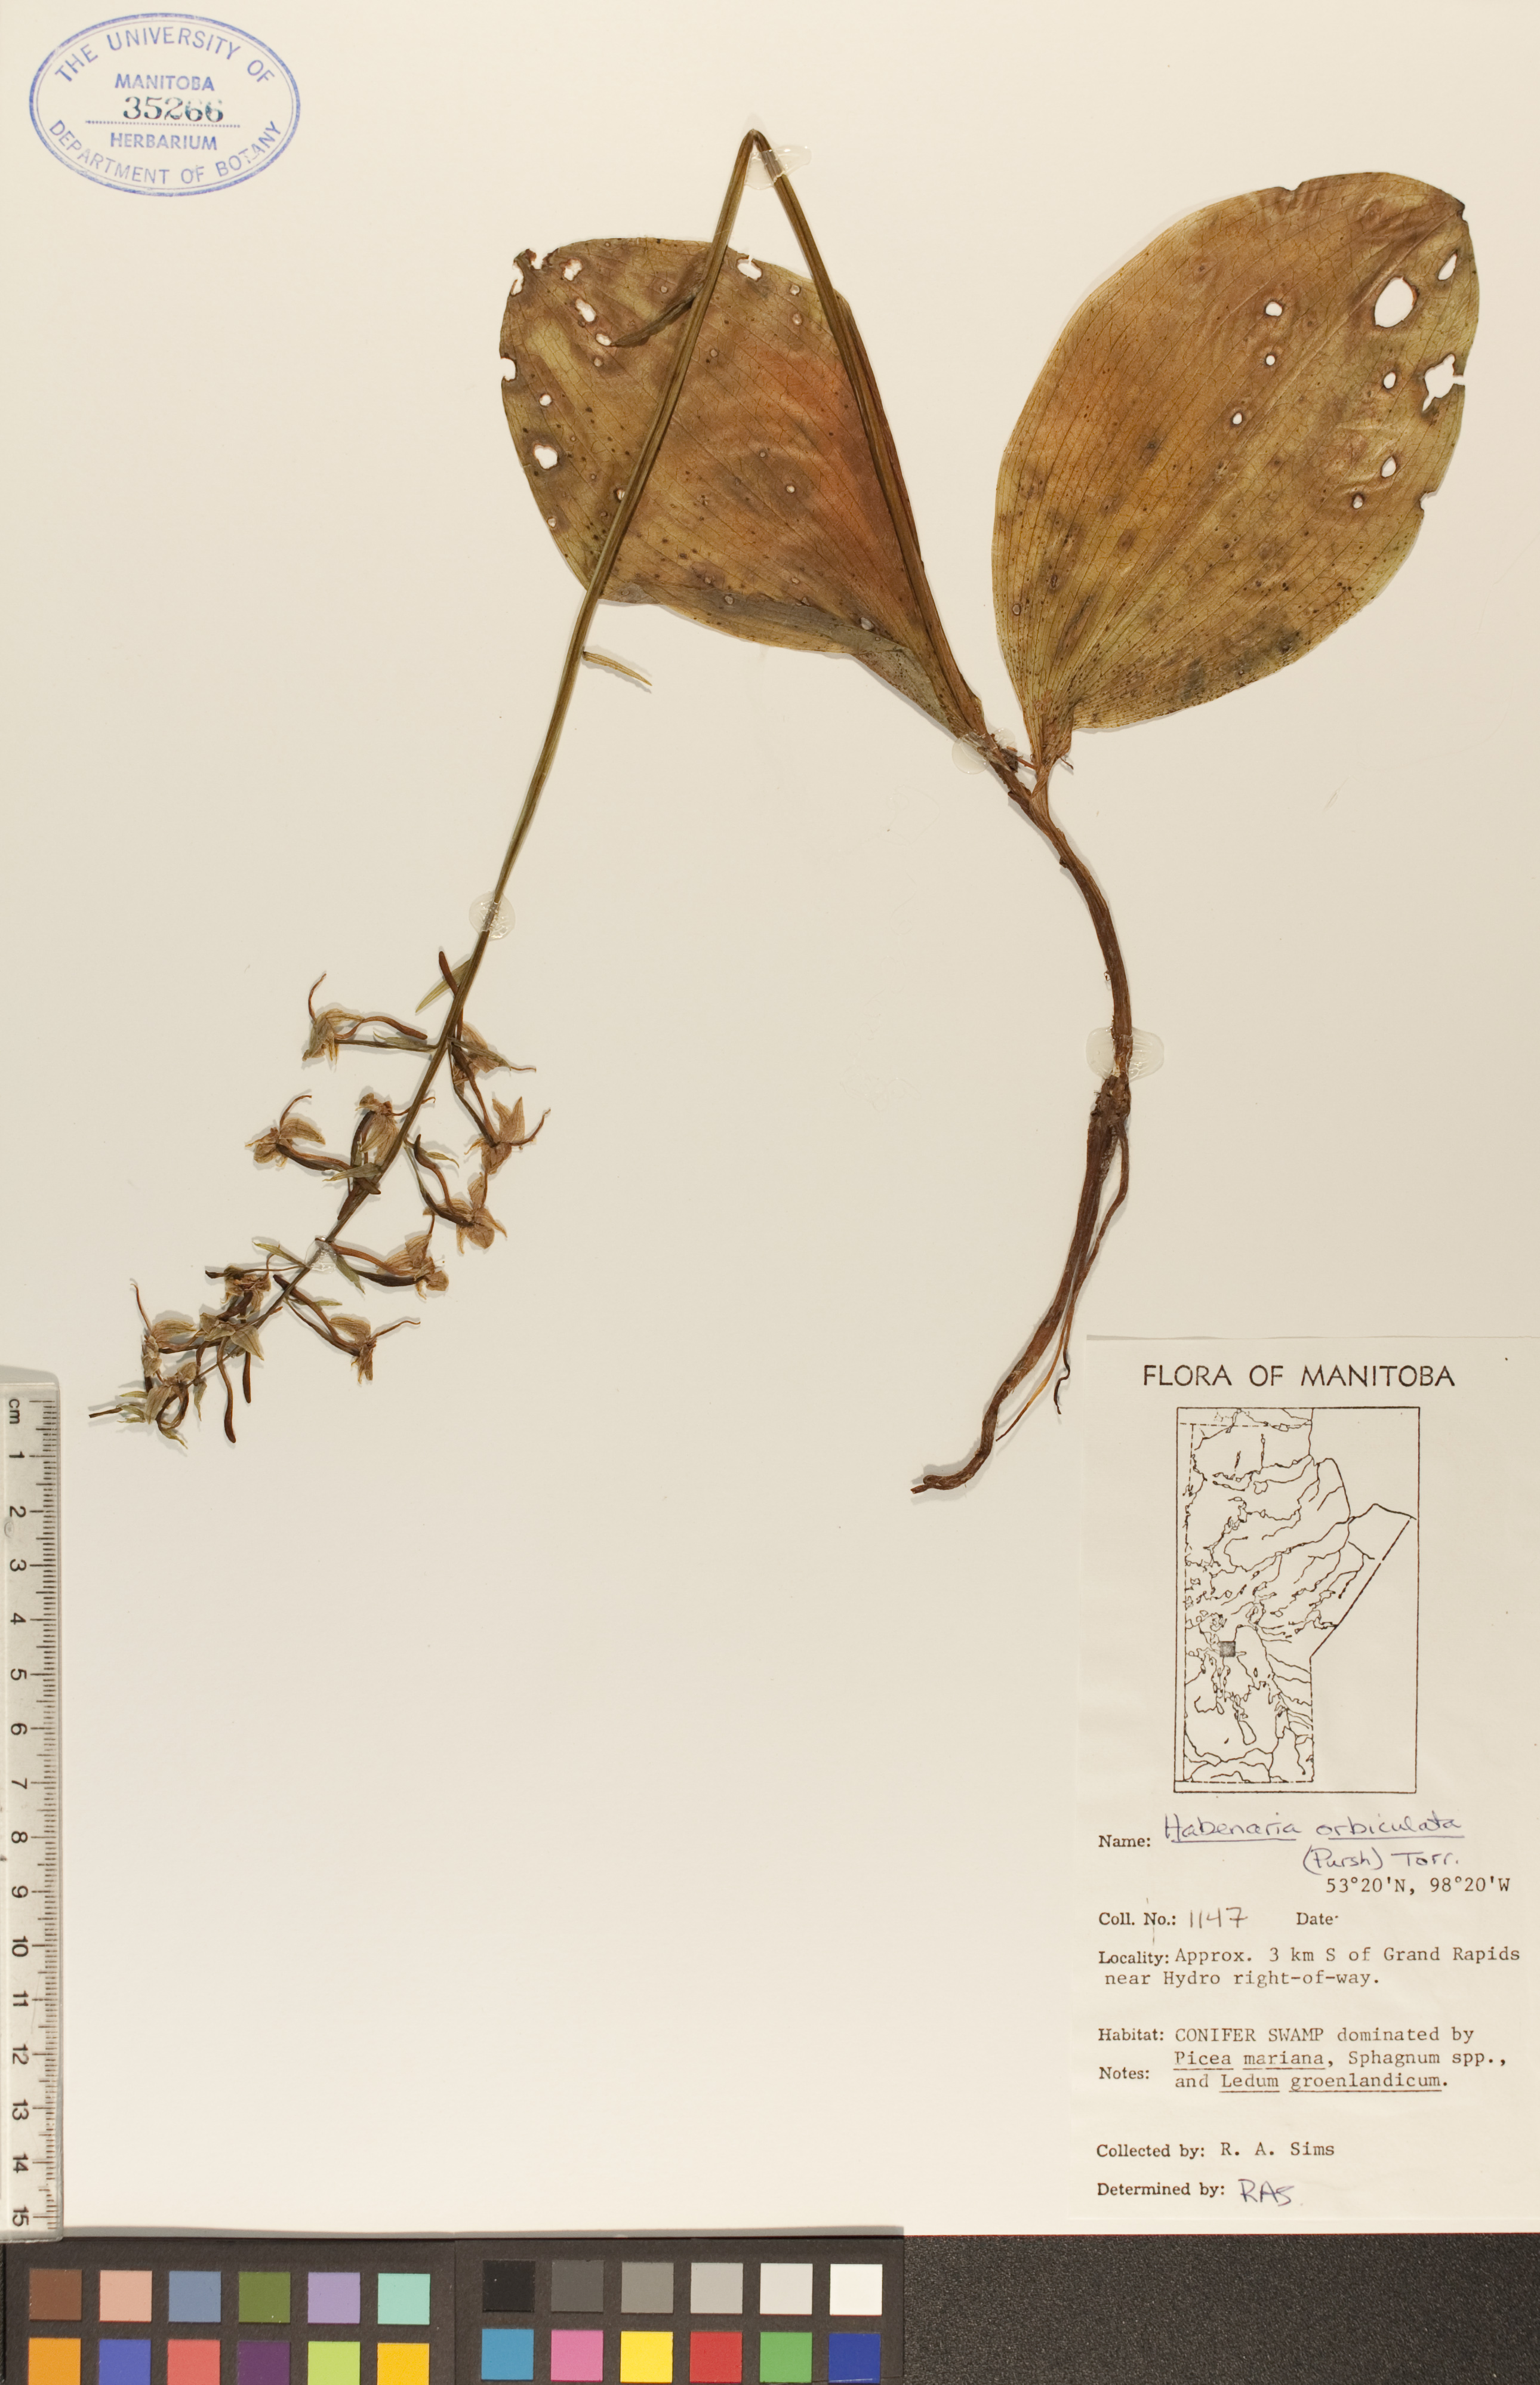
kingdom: Plantae
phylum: Tracheophyta
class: Liliopsida
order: Asparagales
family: Orchidaceae
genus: Platanthera
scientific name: Platanthera orbiculata
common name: Large round-leaved orchid
